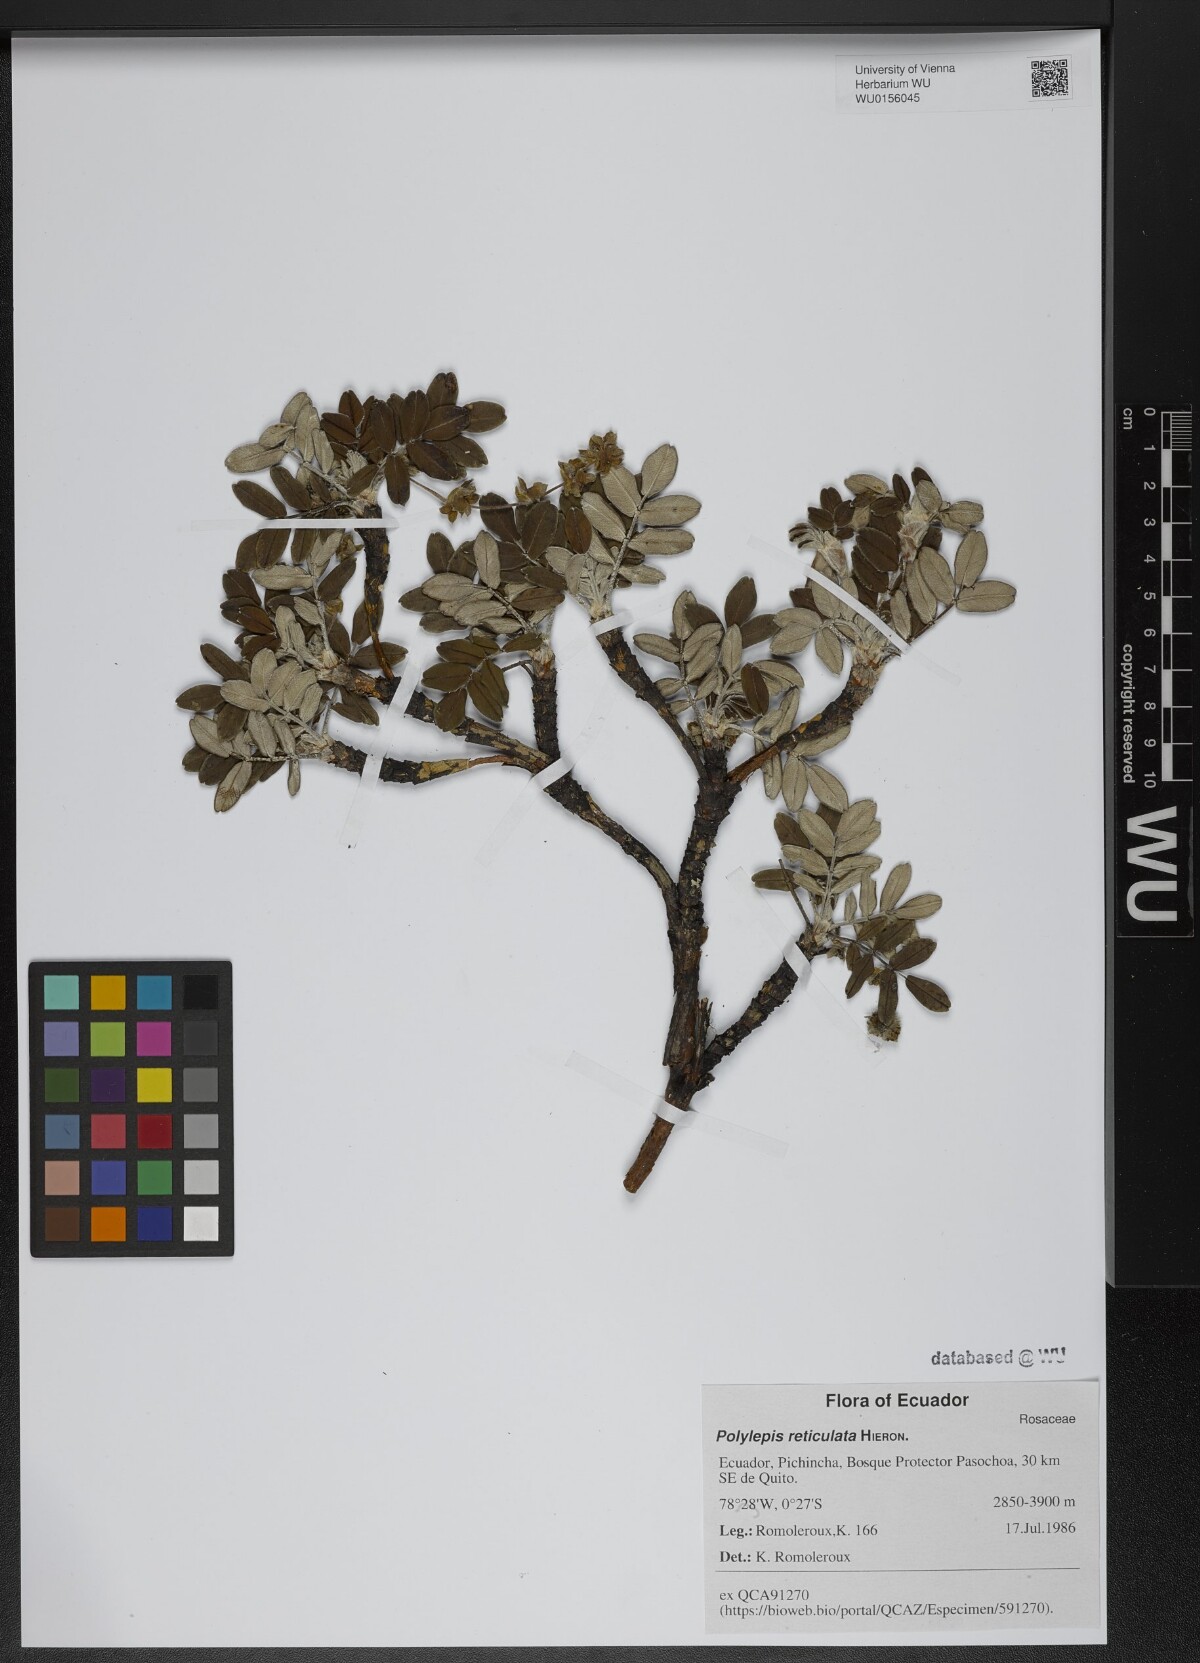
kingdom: Plantae
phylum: Tracheophyta
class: Magnoliopsida
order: Rosales
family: Rosaceae
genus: Polylepis
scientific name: Polylepis reticulata
